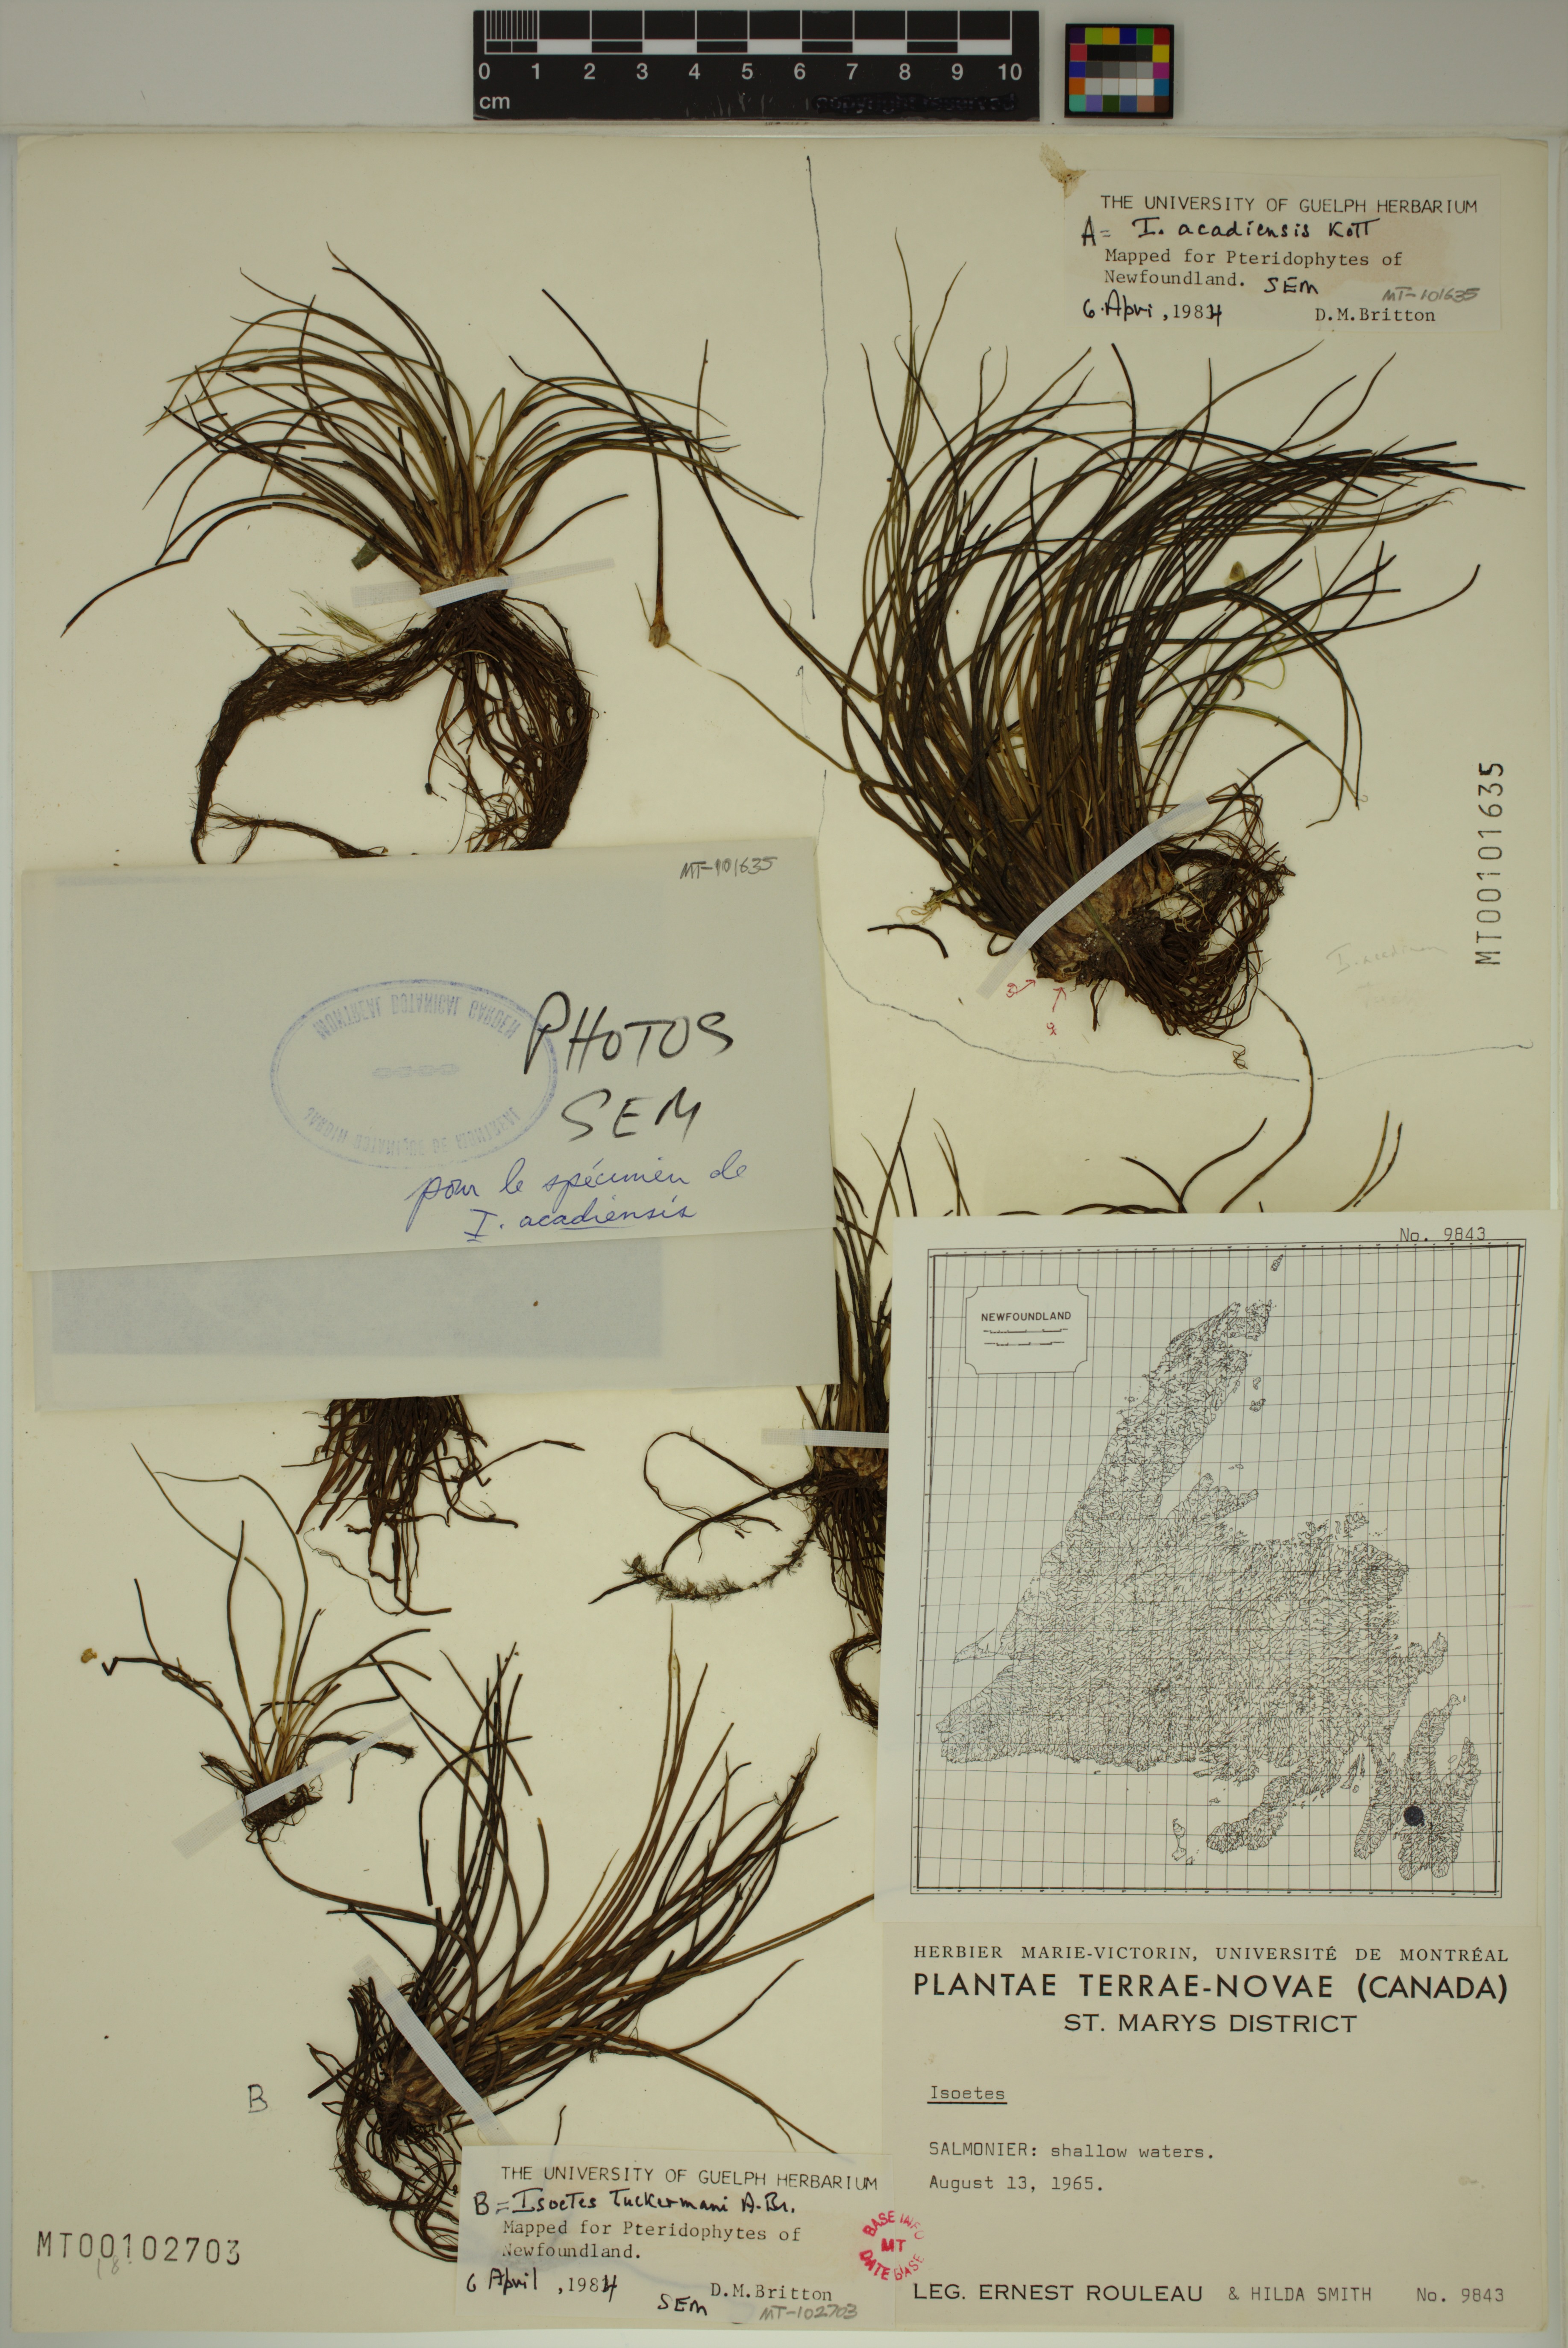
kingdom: Plantae
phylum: Tracheophyta
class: Lycopodiopsida
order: Isoetales
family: Isoetaceae
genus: Isoetes
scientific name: Isoetes tuckermanii
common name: Tuckerman's quillwort
